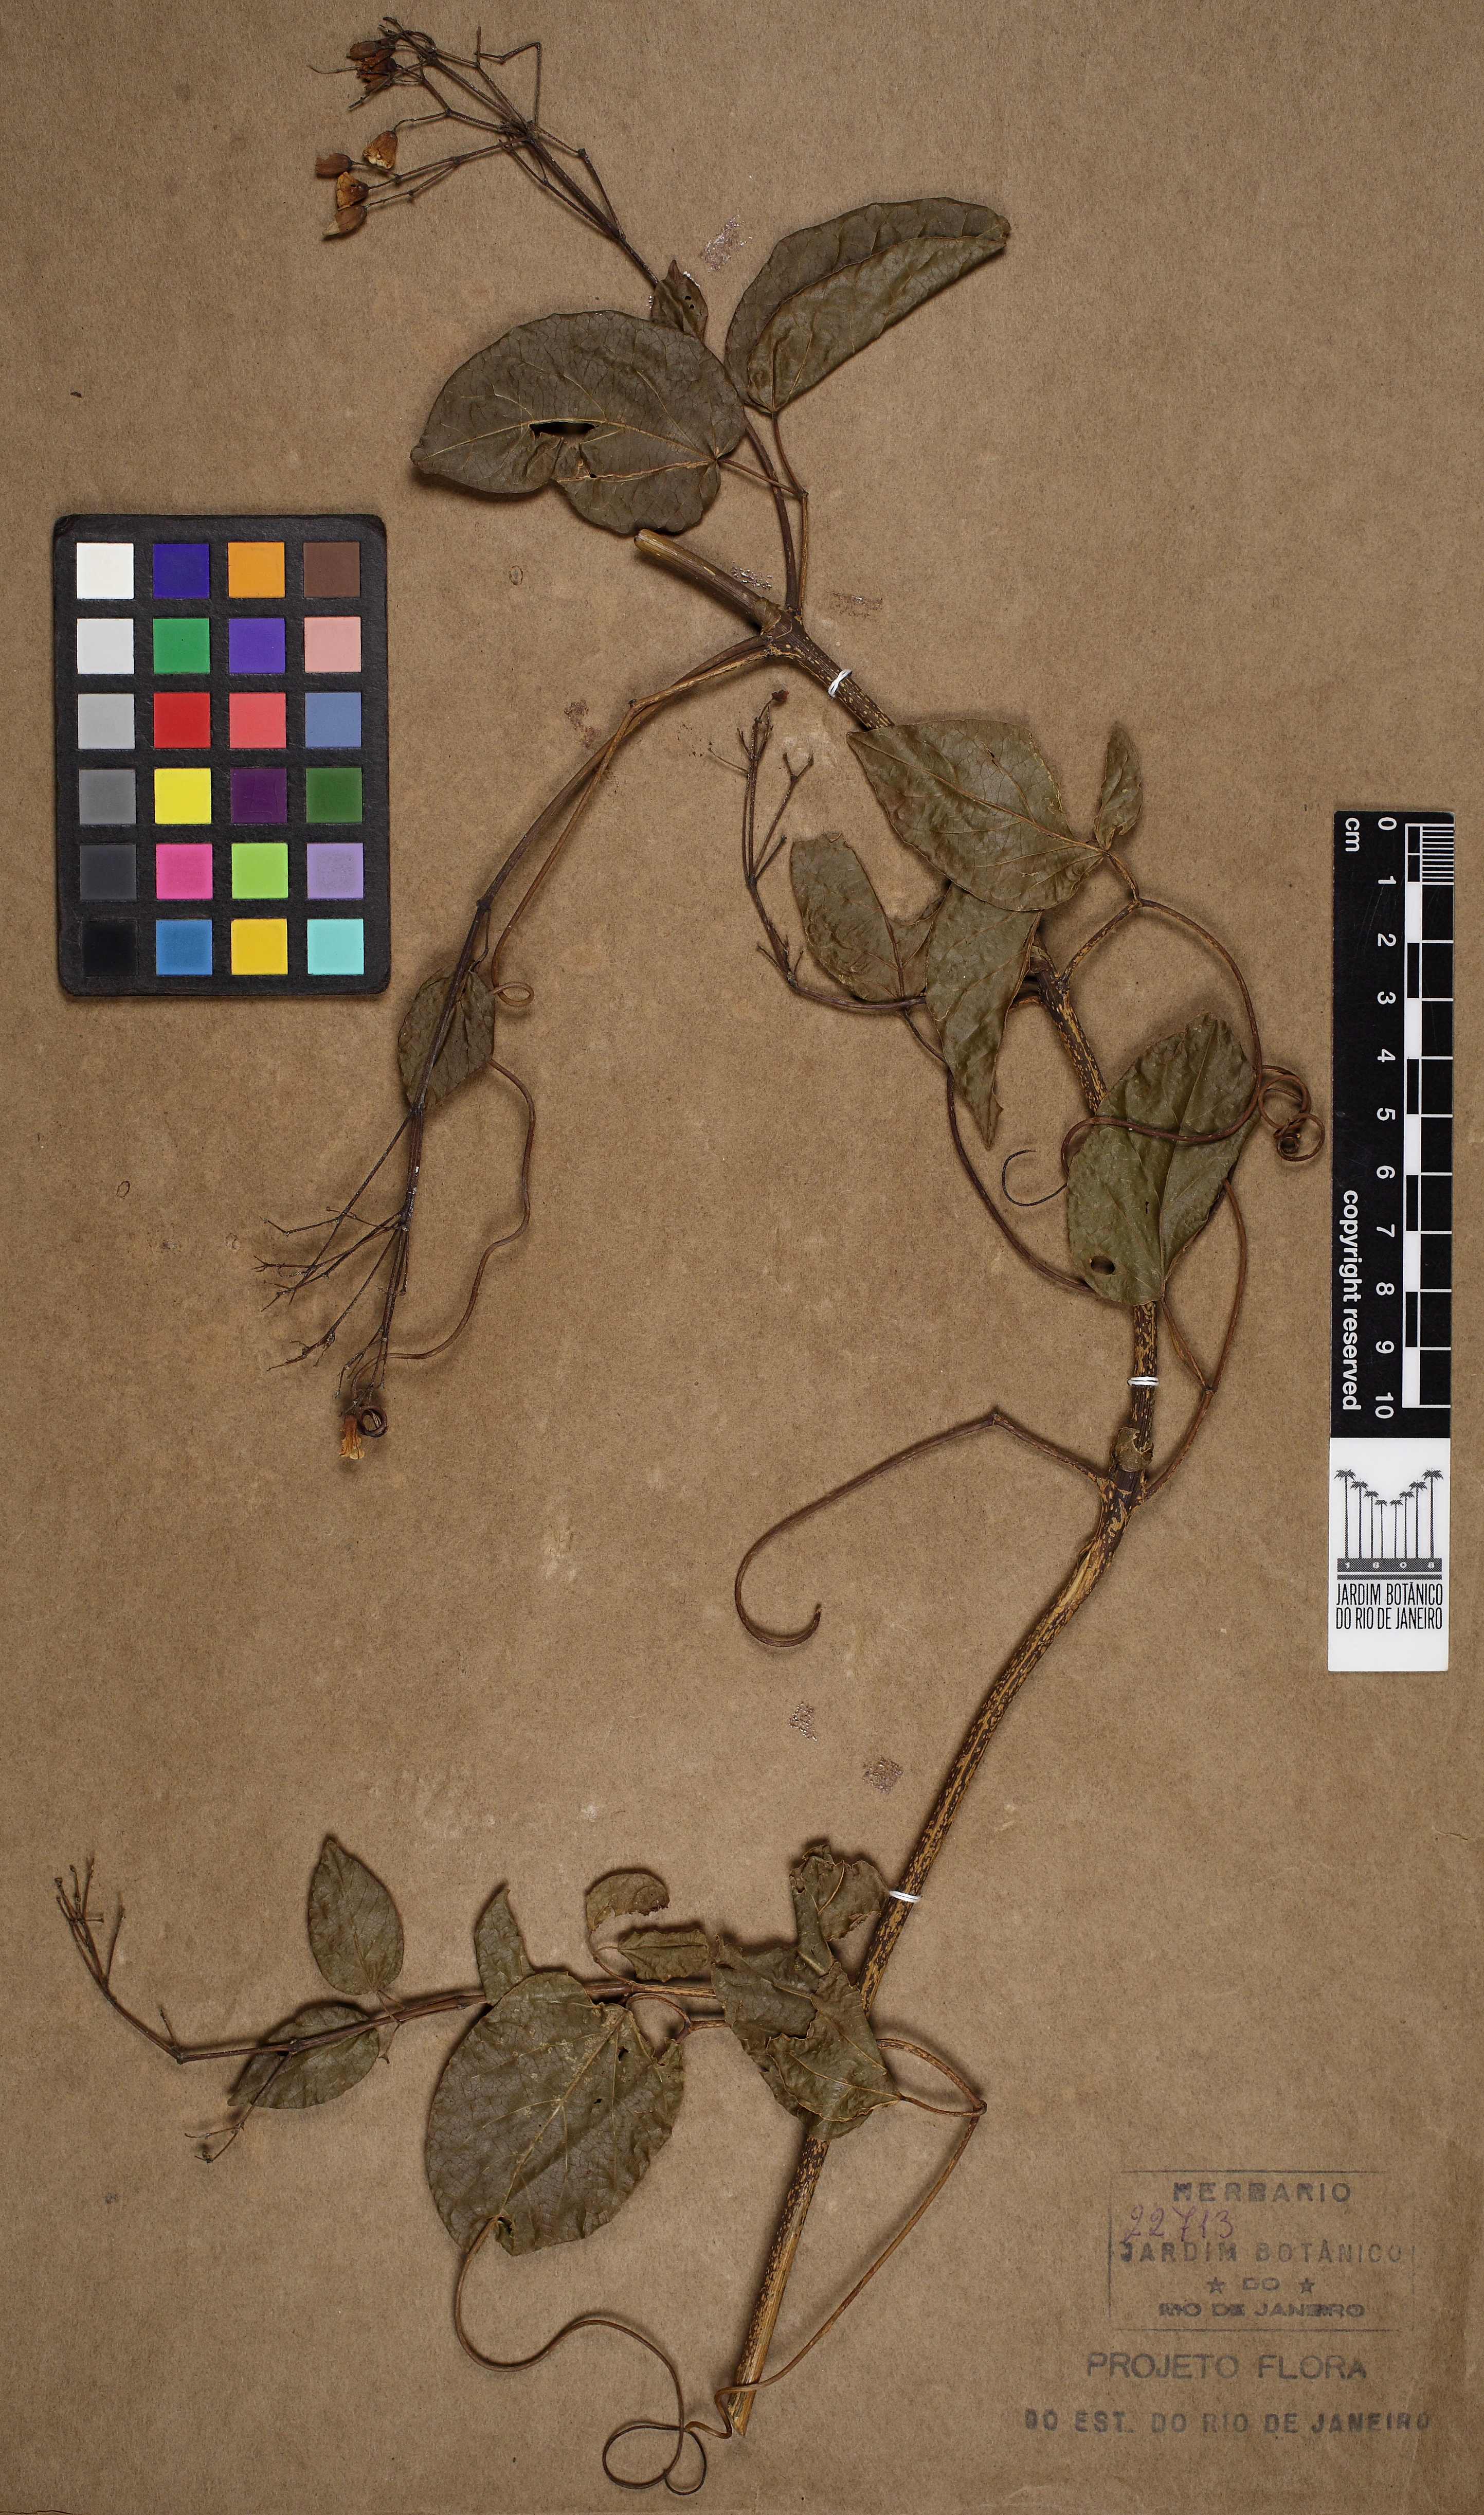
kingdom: Plantae
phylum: Tracheophyta
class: Magnoliopsida
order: Lamiales
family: Bignoniaceae
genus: Tanaecium
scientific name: Tanaecium selloi
